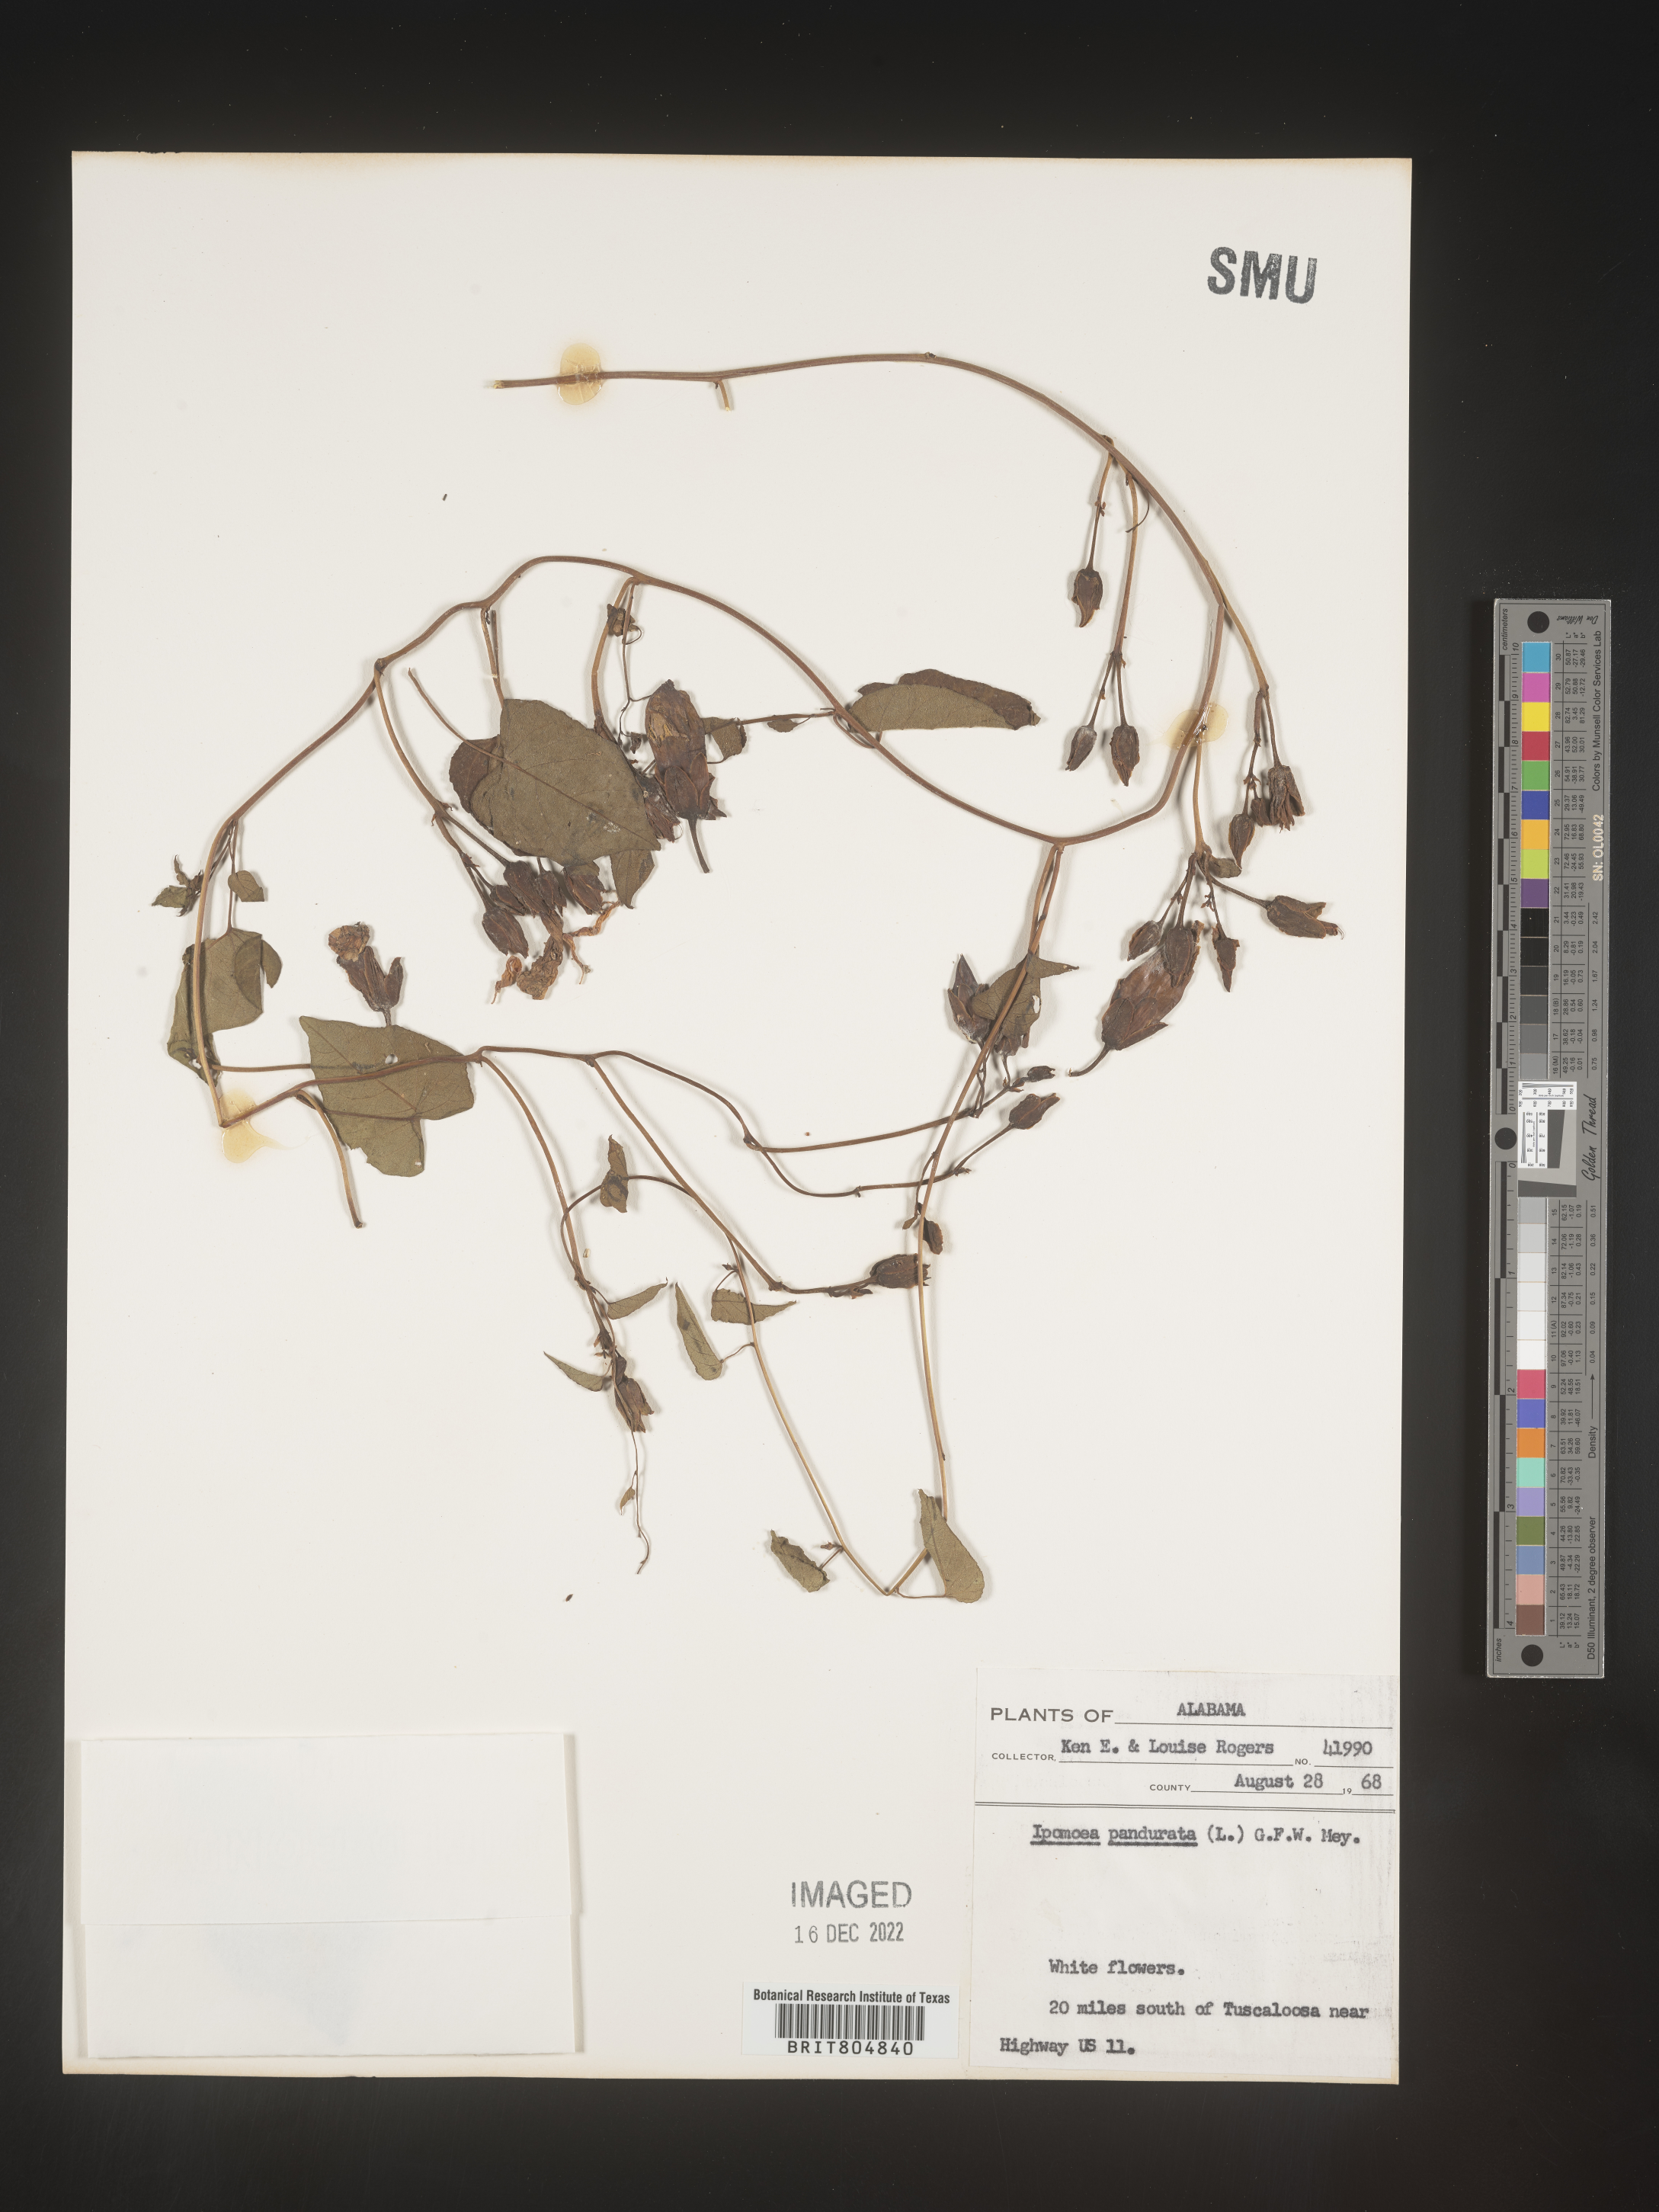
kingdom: Plantae
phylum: Tracheophyta
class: Magnoliopsida
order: Solanales
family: Convolvulaceae
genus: Ipomoea
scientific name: Ipomoea pandurata
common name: Man-of-the-earth
